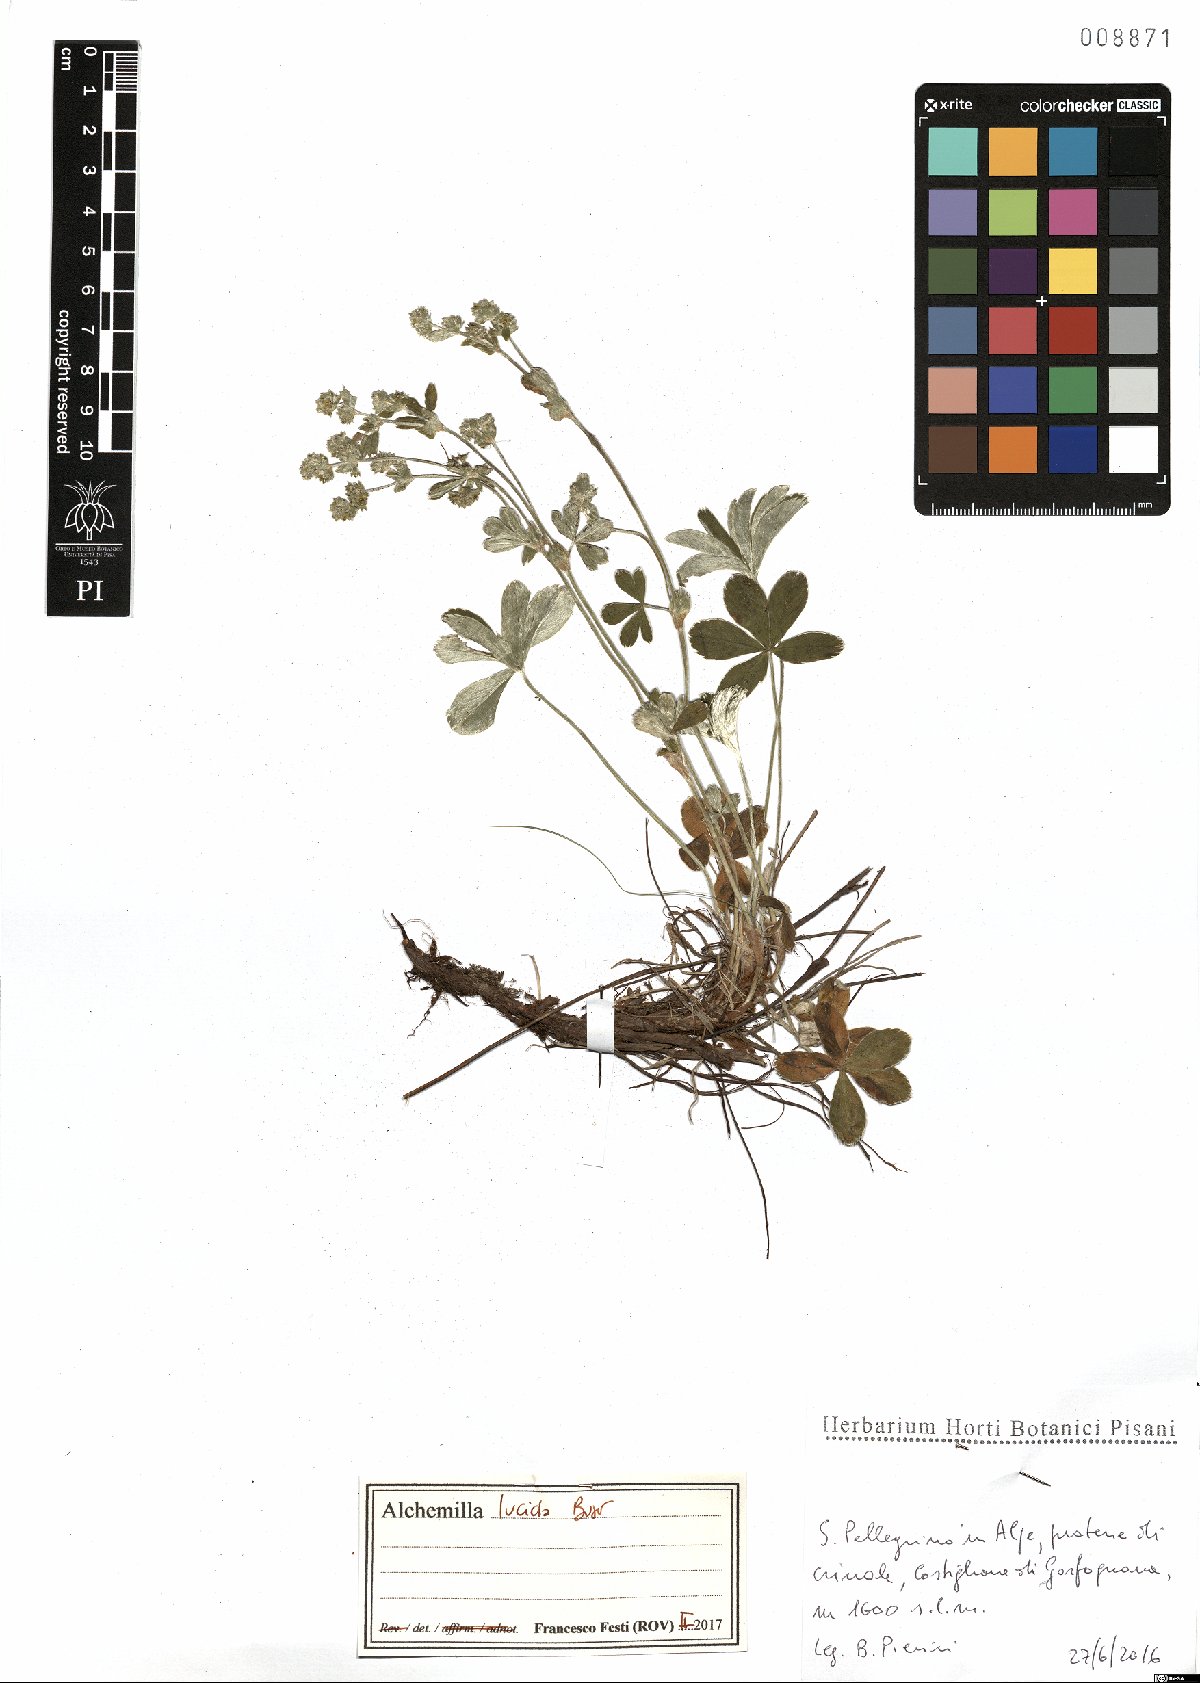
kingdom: Plantae
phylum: Tracheophyta
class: Magnoliopsida
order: Rosales
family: Rosaceae
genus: Alchemilla
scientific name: Alchemilla lucida
